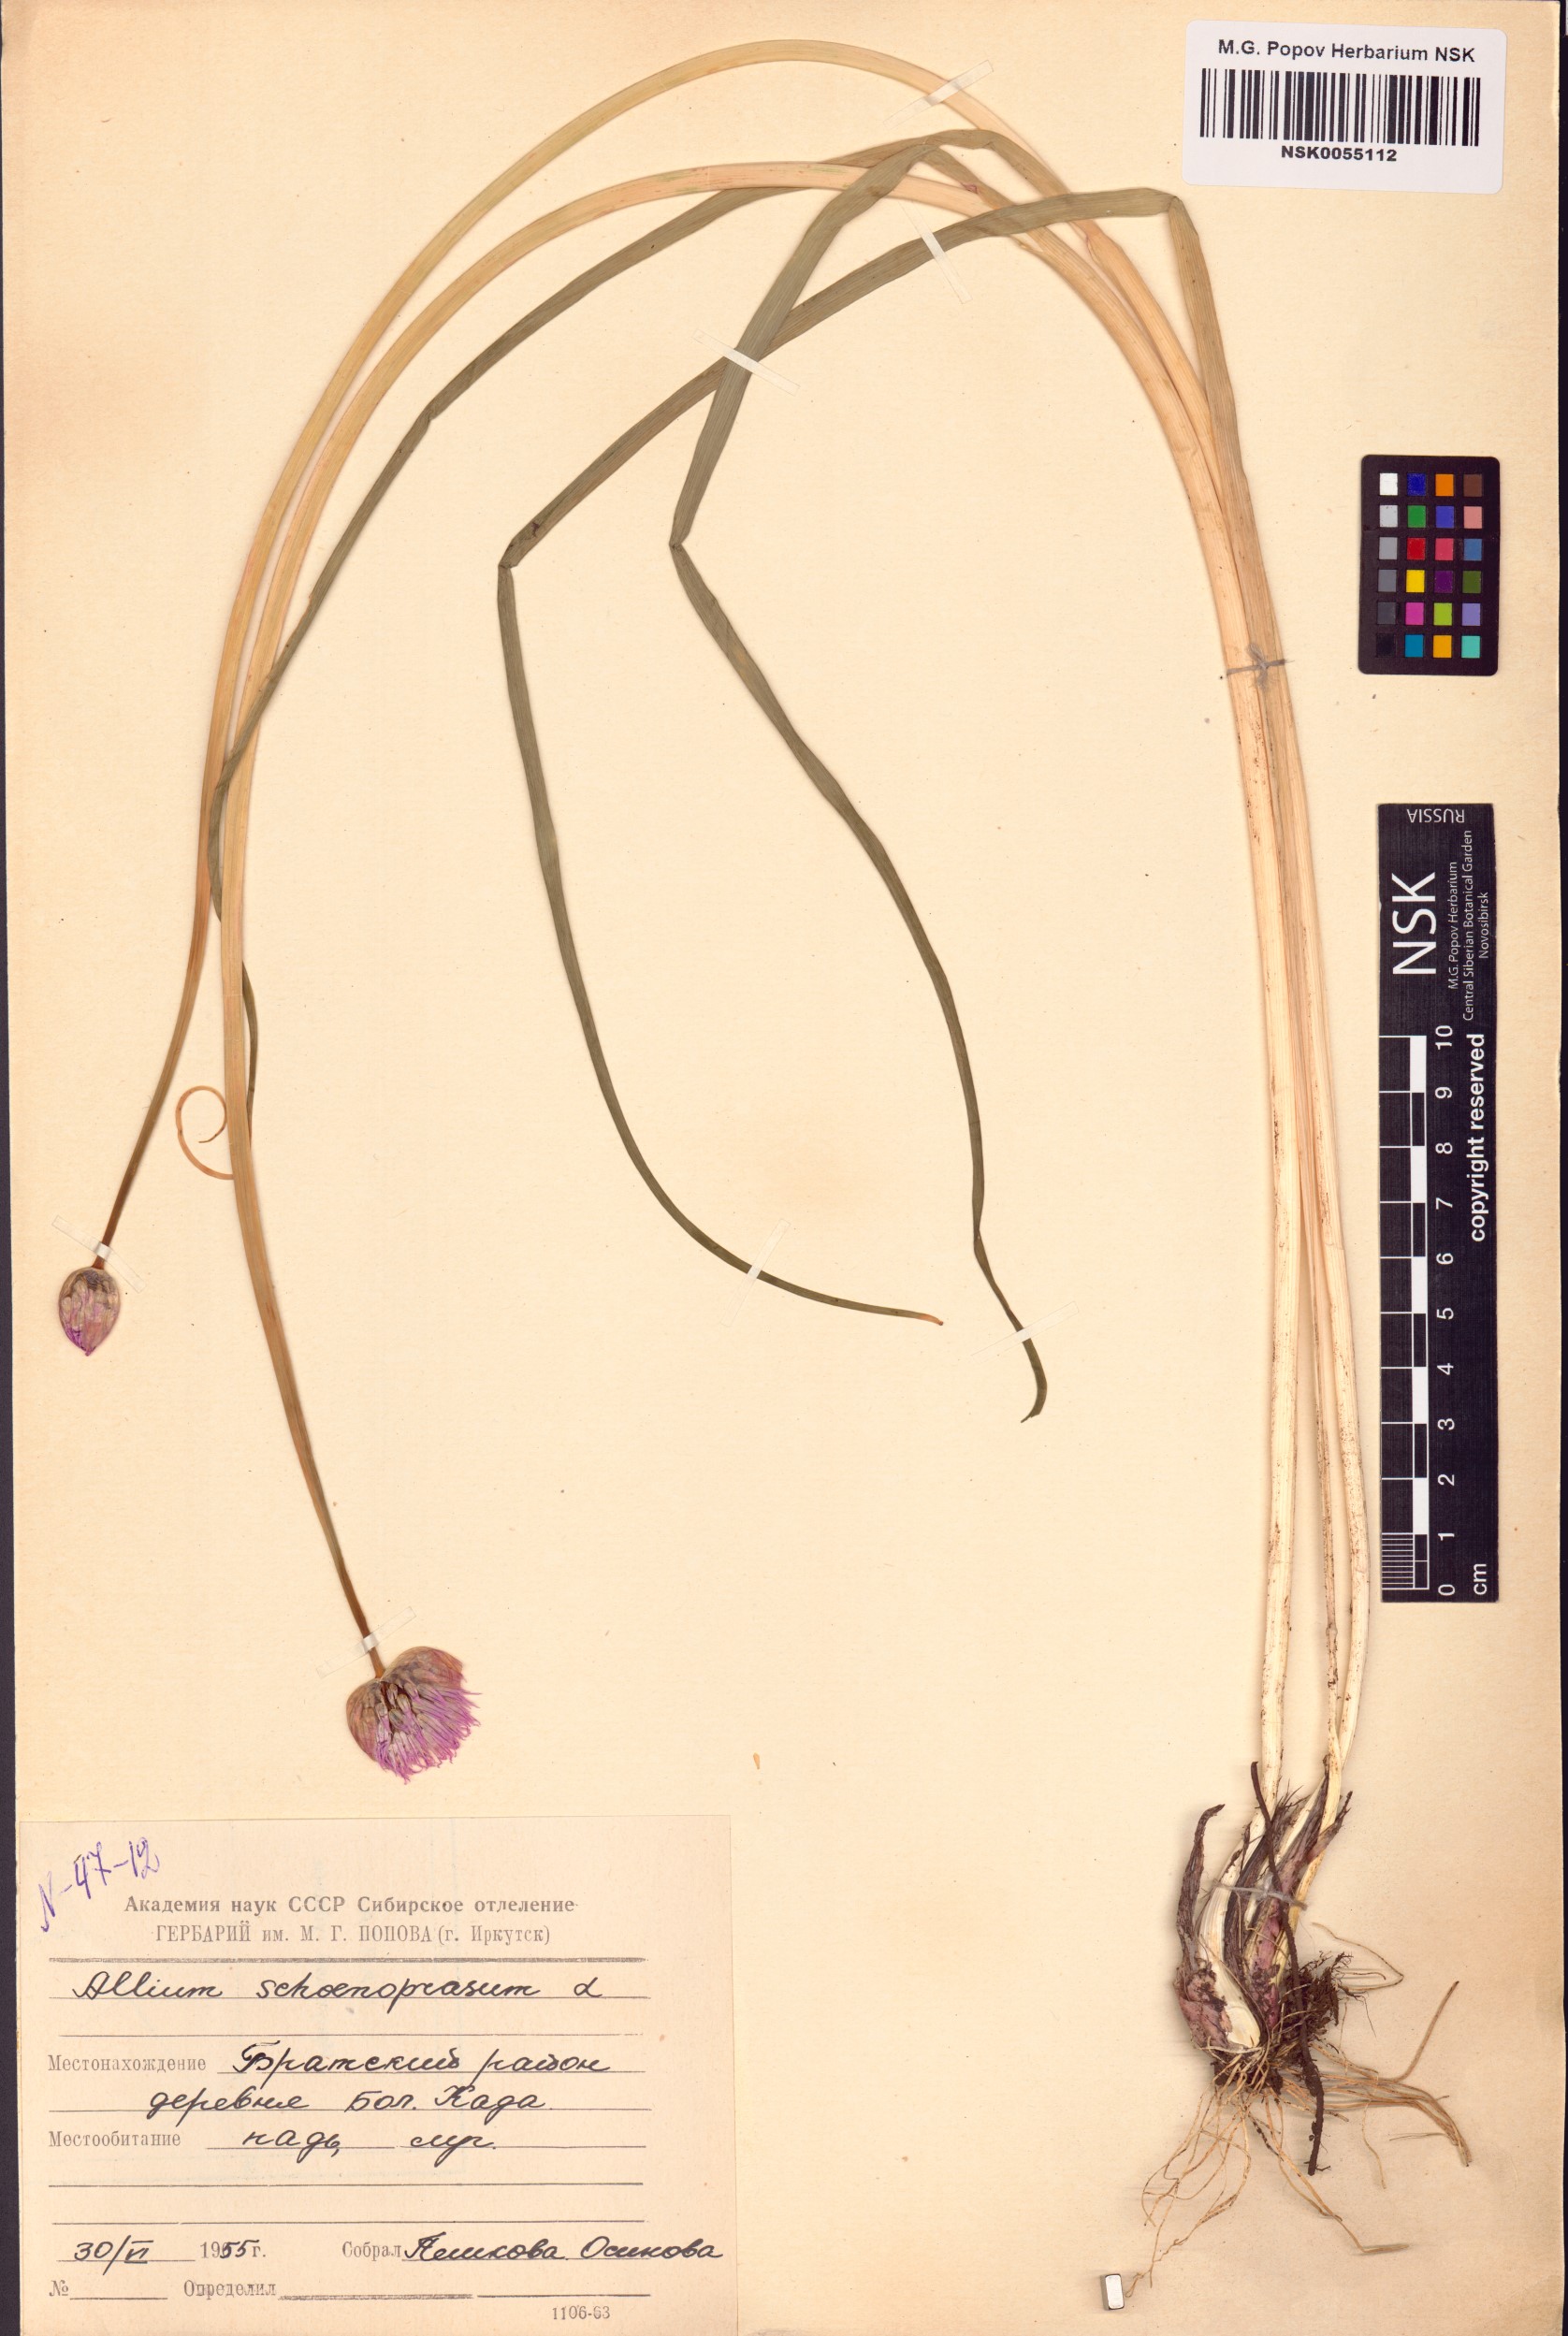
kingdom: Plantae
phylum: Tracheophyta
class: Liliopsida
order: Asparagales
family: Amaryllidaceae
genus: Allium
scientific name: Allium schoenoprasum
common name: Chives
